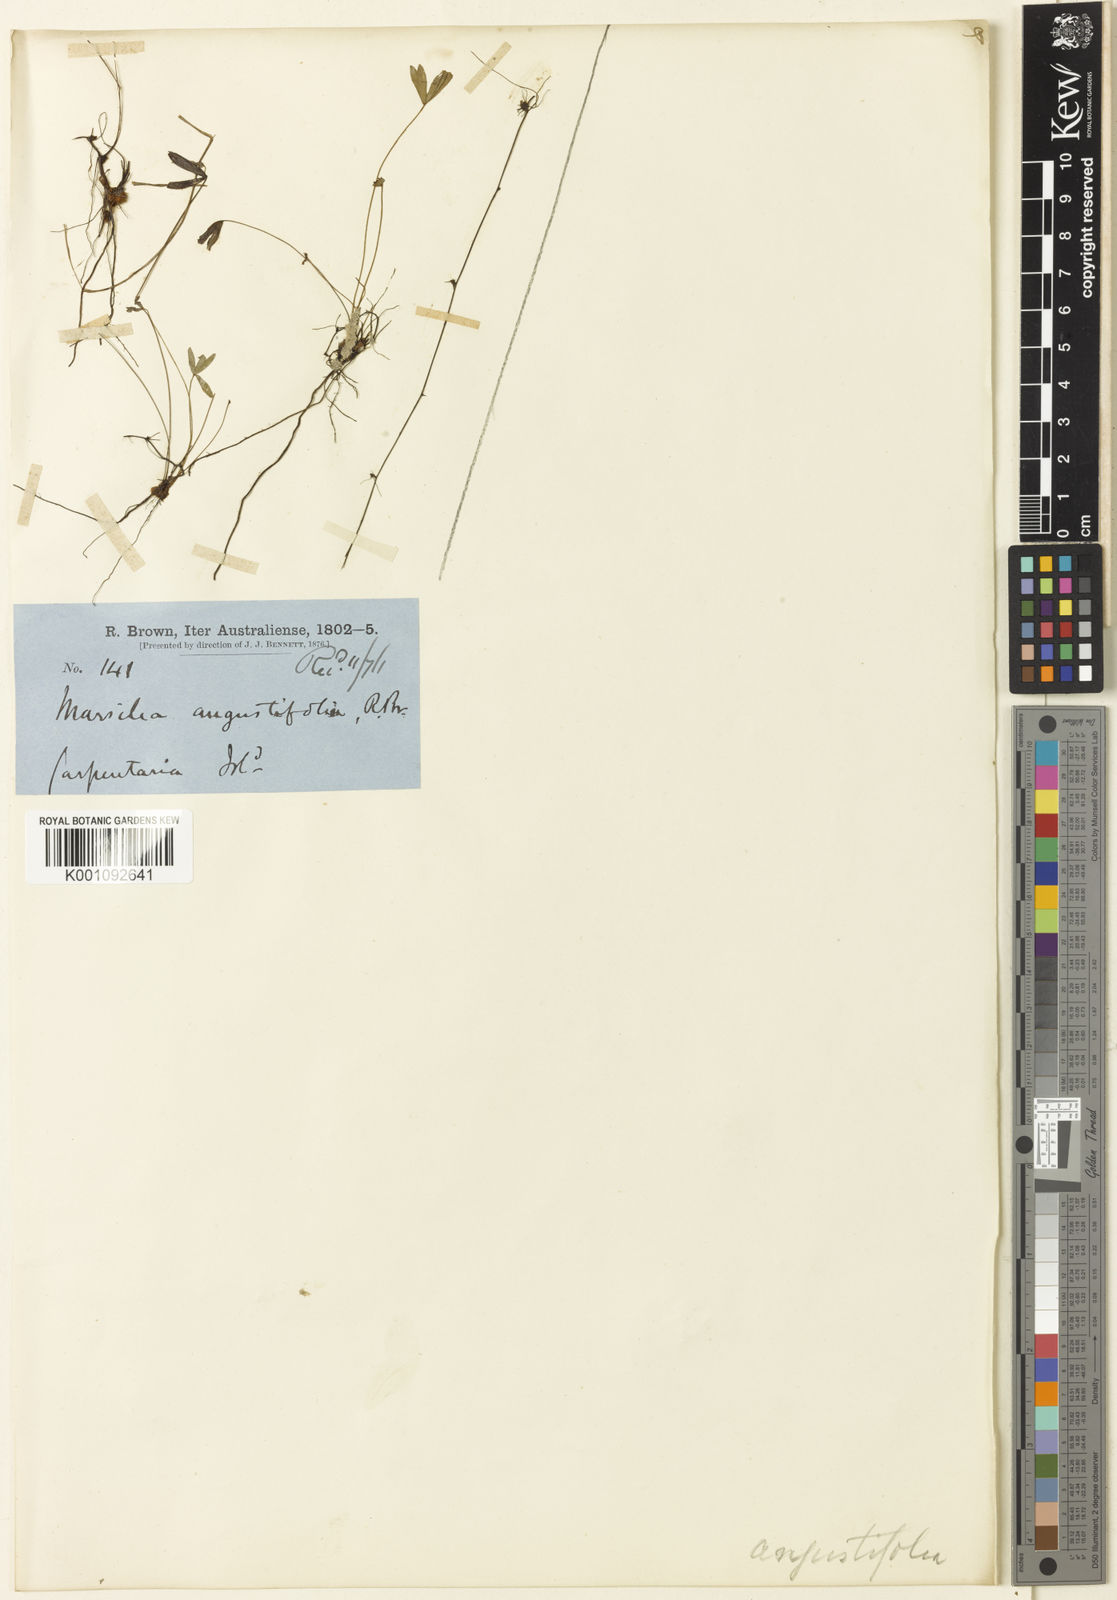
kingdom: Plantae
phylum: Tracheophyta
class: Polypodiopsida
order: Salviniales
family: Marsileaceae
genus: Marsilea
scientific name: Marsilea angustifolia
